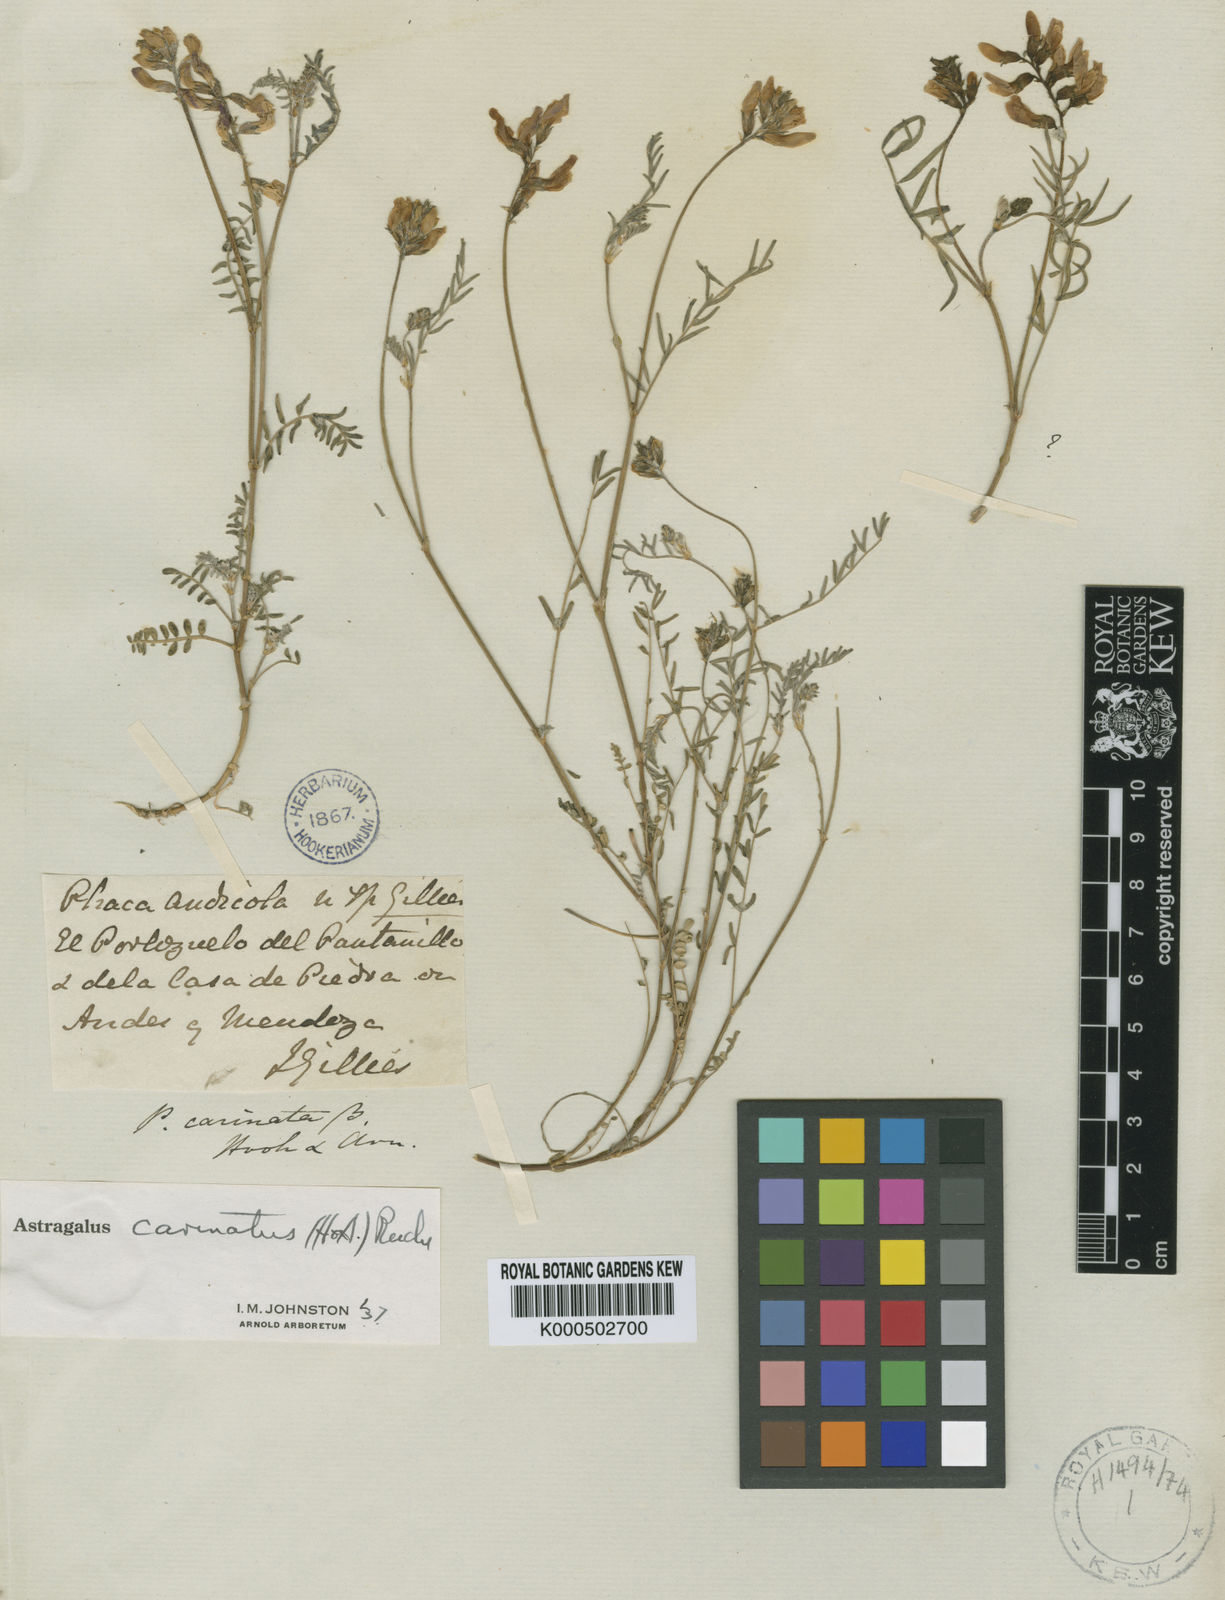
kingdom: Plantae
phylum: Tracheophyta
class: Magnoliopsida
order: Fabales
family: Fabaceae
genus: Astragalus
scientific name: Astragalus chamissonis
